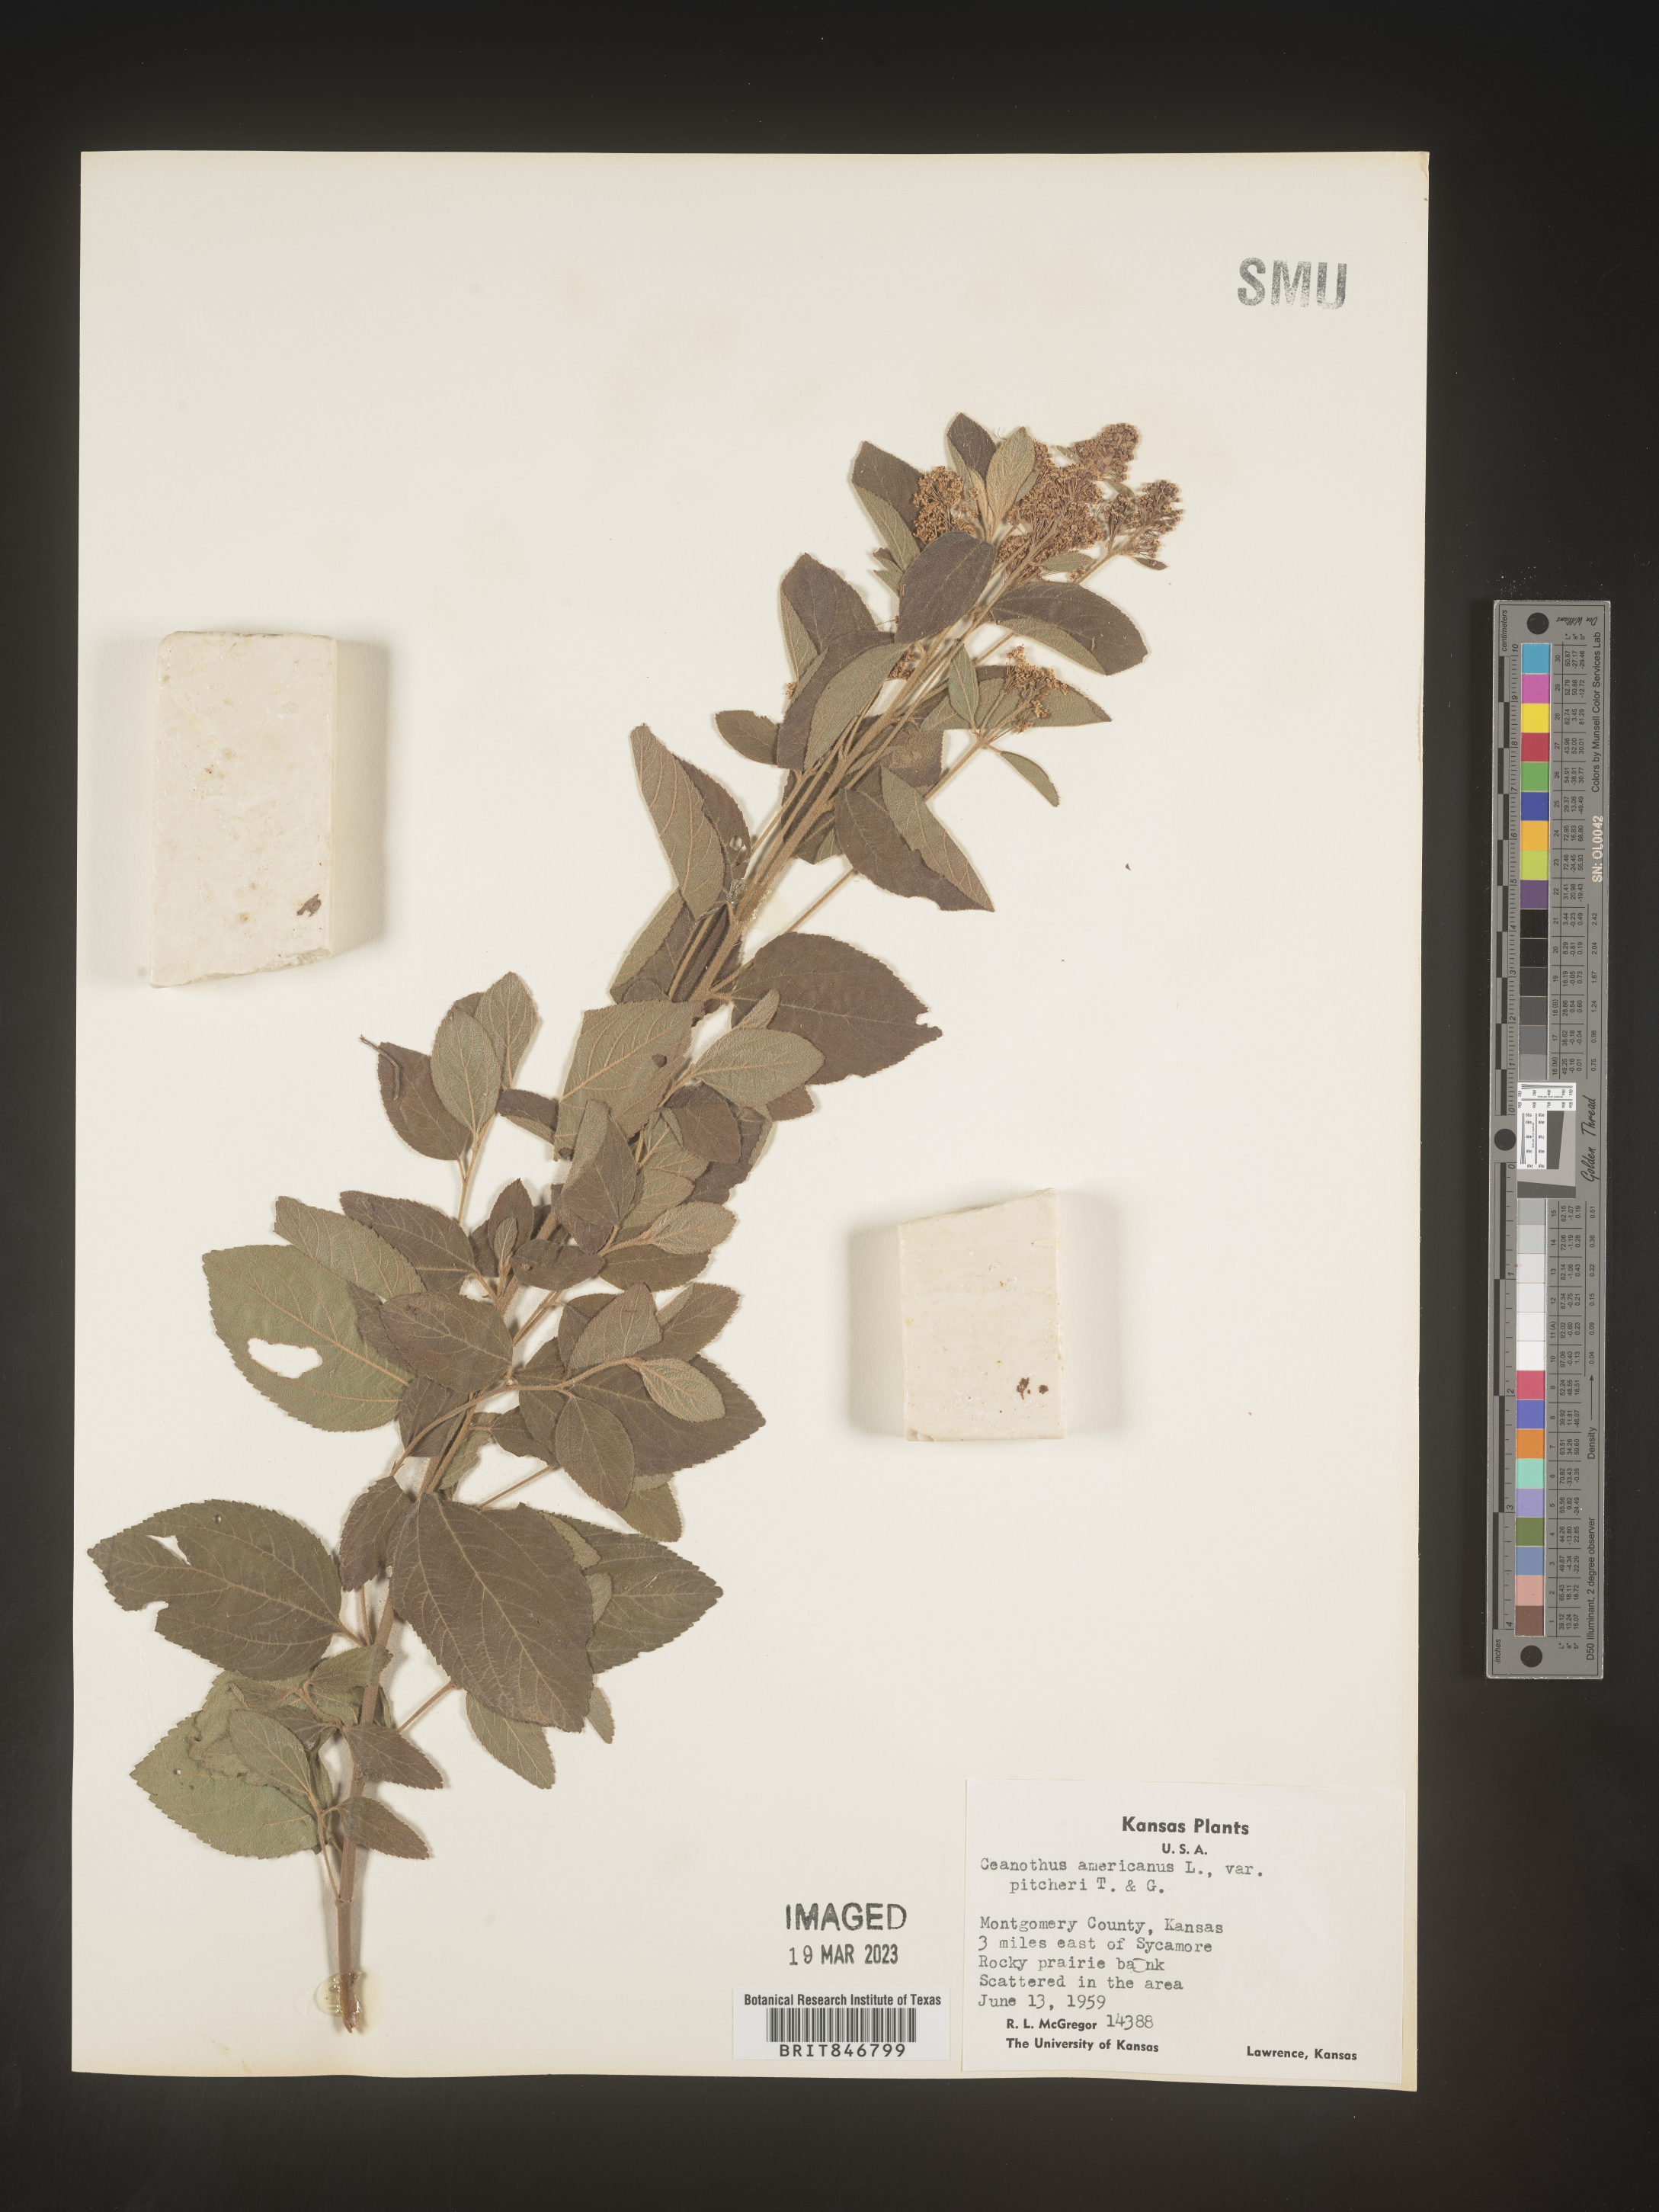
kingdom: Plantae
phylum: Tracheophyta
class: Magnoliopsida
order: Rosales
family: Rhamnaceae
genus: Ceanothus
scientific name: Ceanothus americanus
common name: Redroot
